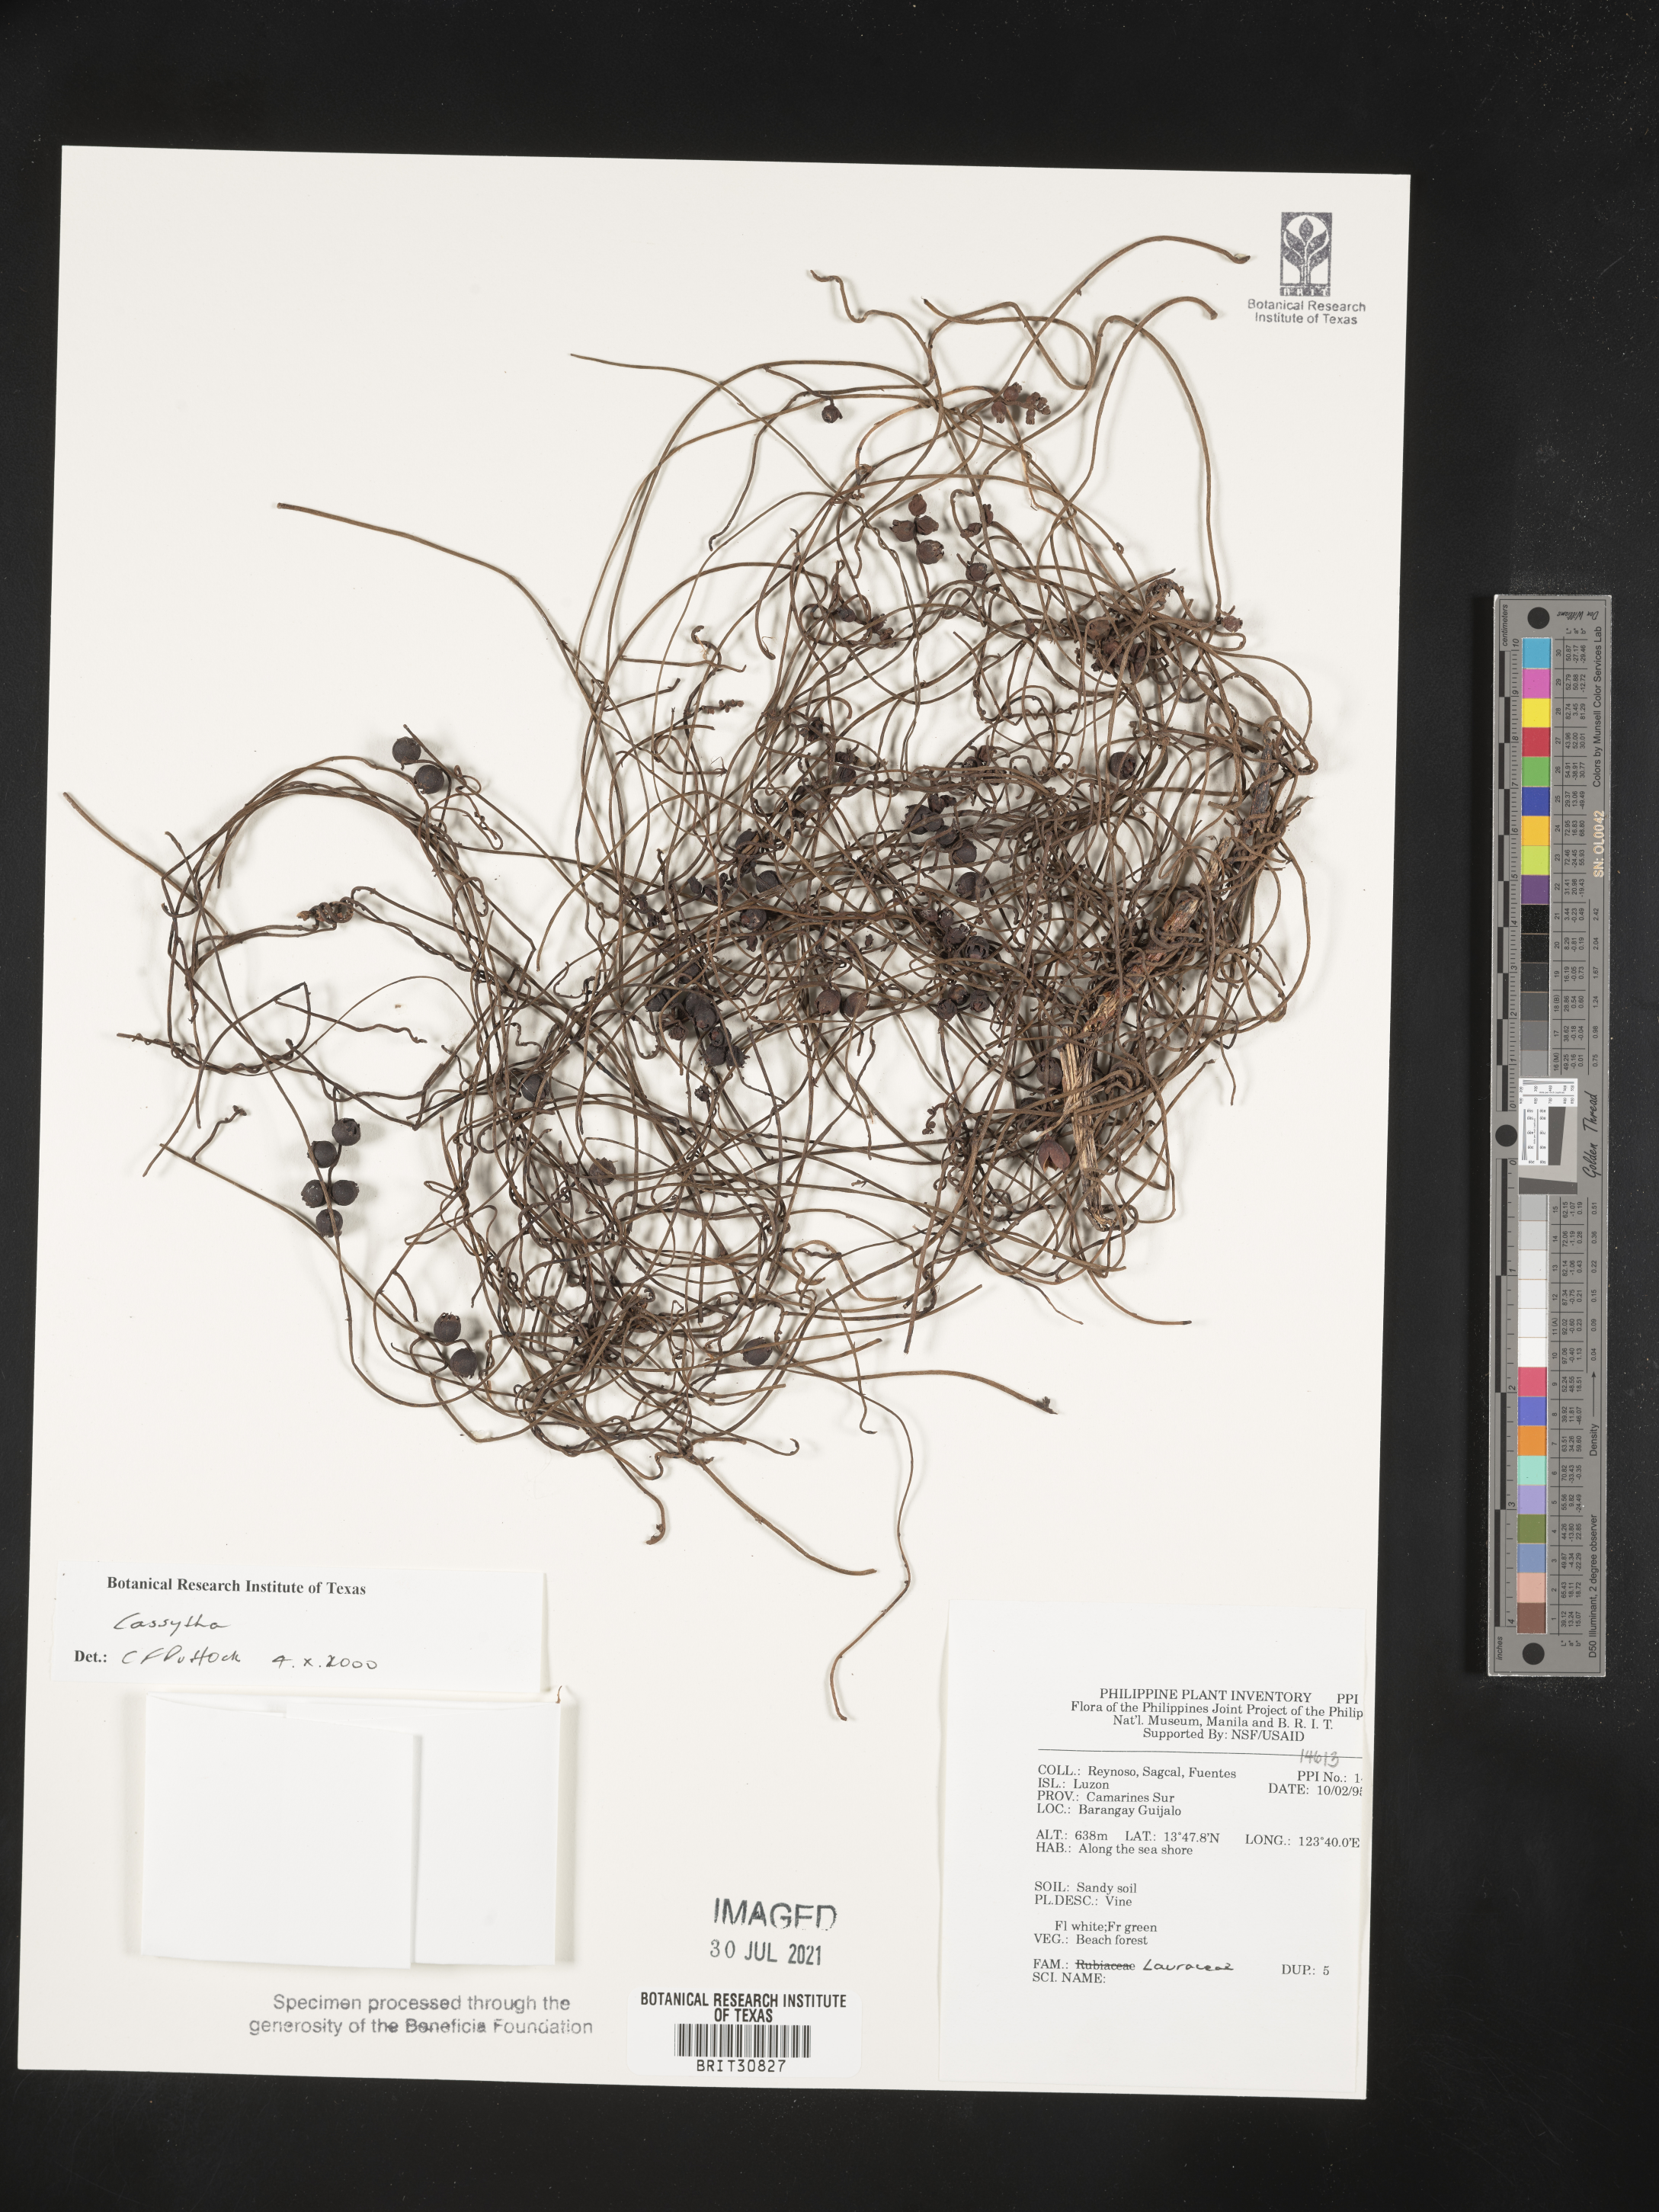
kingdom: Plantae
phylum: Tracheophyta
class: Magnoliopsida
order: Laurales
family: Lauraceae
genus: Cassytha
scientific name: Cassytha
